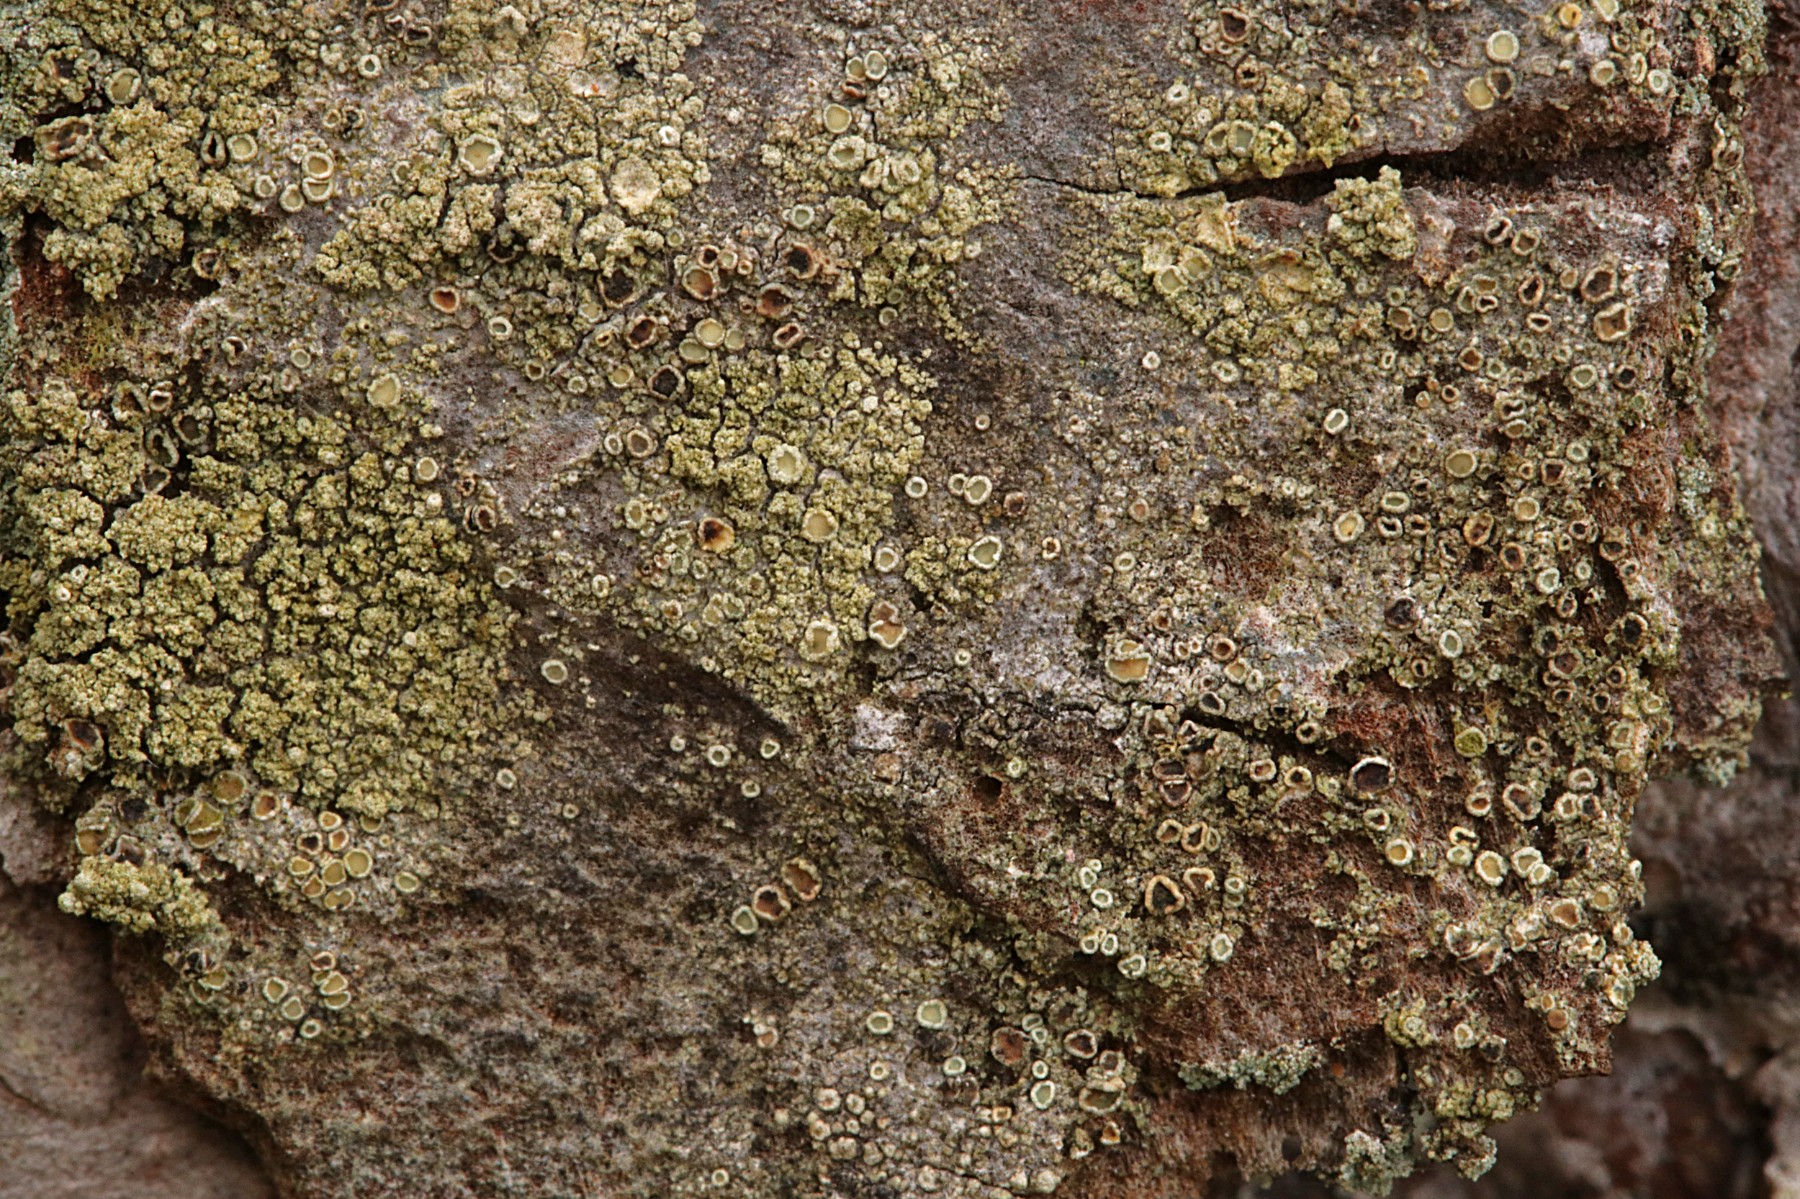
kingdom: Fungi
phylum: Ascomycota
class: Lecanoromycetes
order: Lecanorales
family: Lecanoraceae
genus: Straminella
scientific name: Straminella conizaeoides
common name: by-kantskivelav
